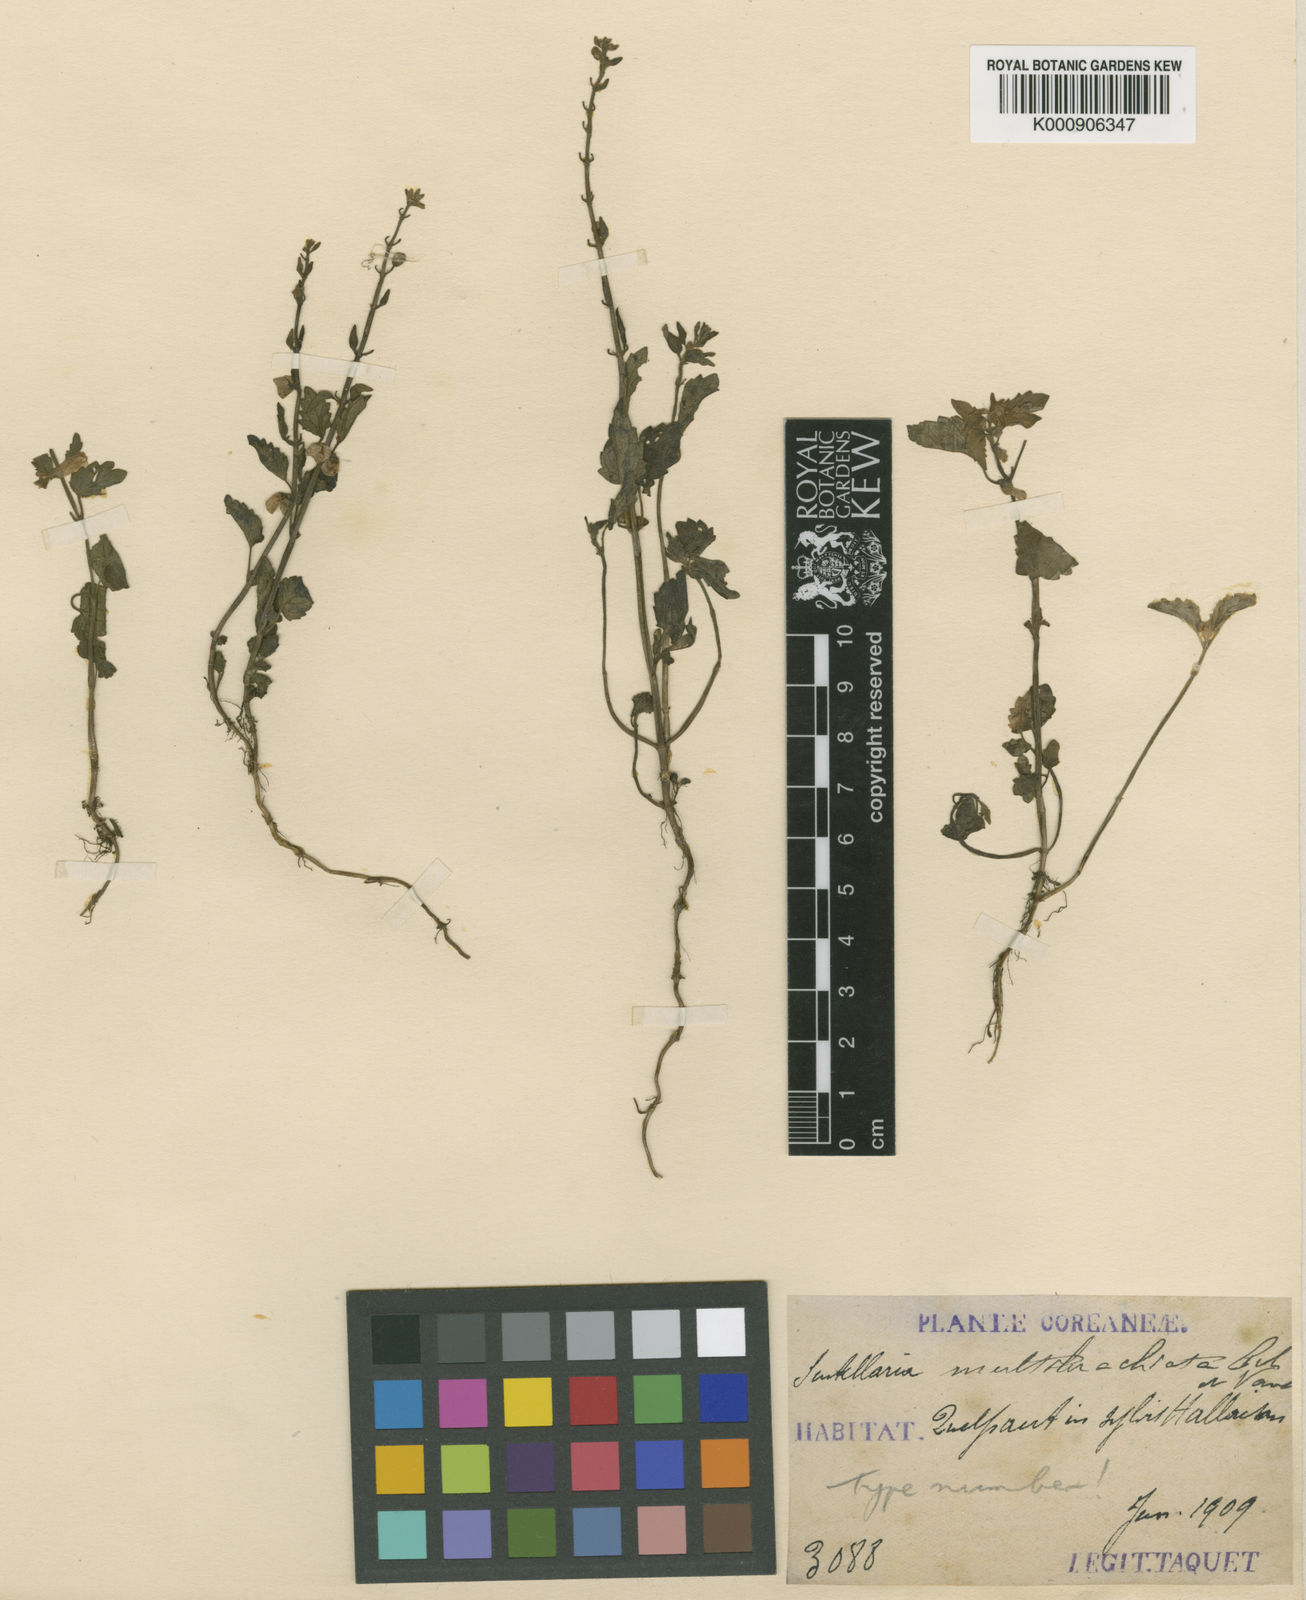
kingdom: Plantae
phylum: Tracheophyta
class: Magnoliopsida
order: Lamiales
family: Lamiaceae
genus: Scutellaria
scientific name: Scutellaria
